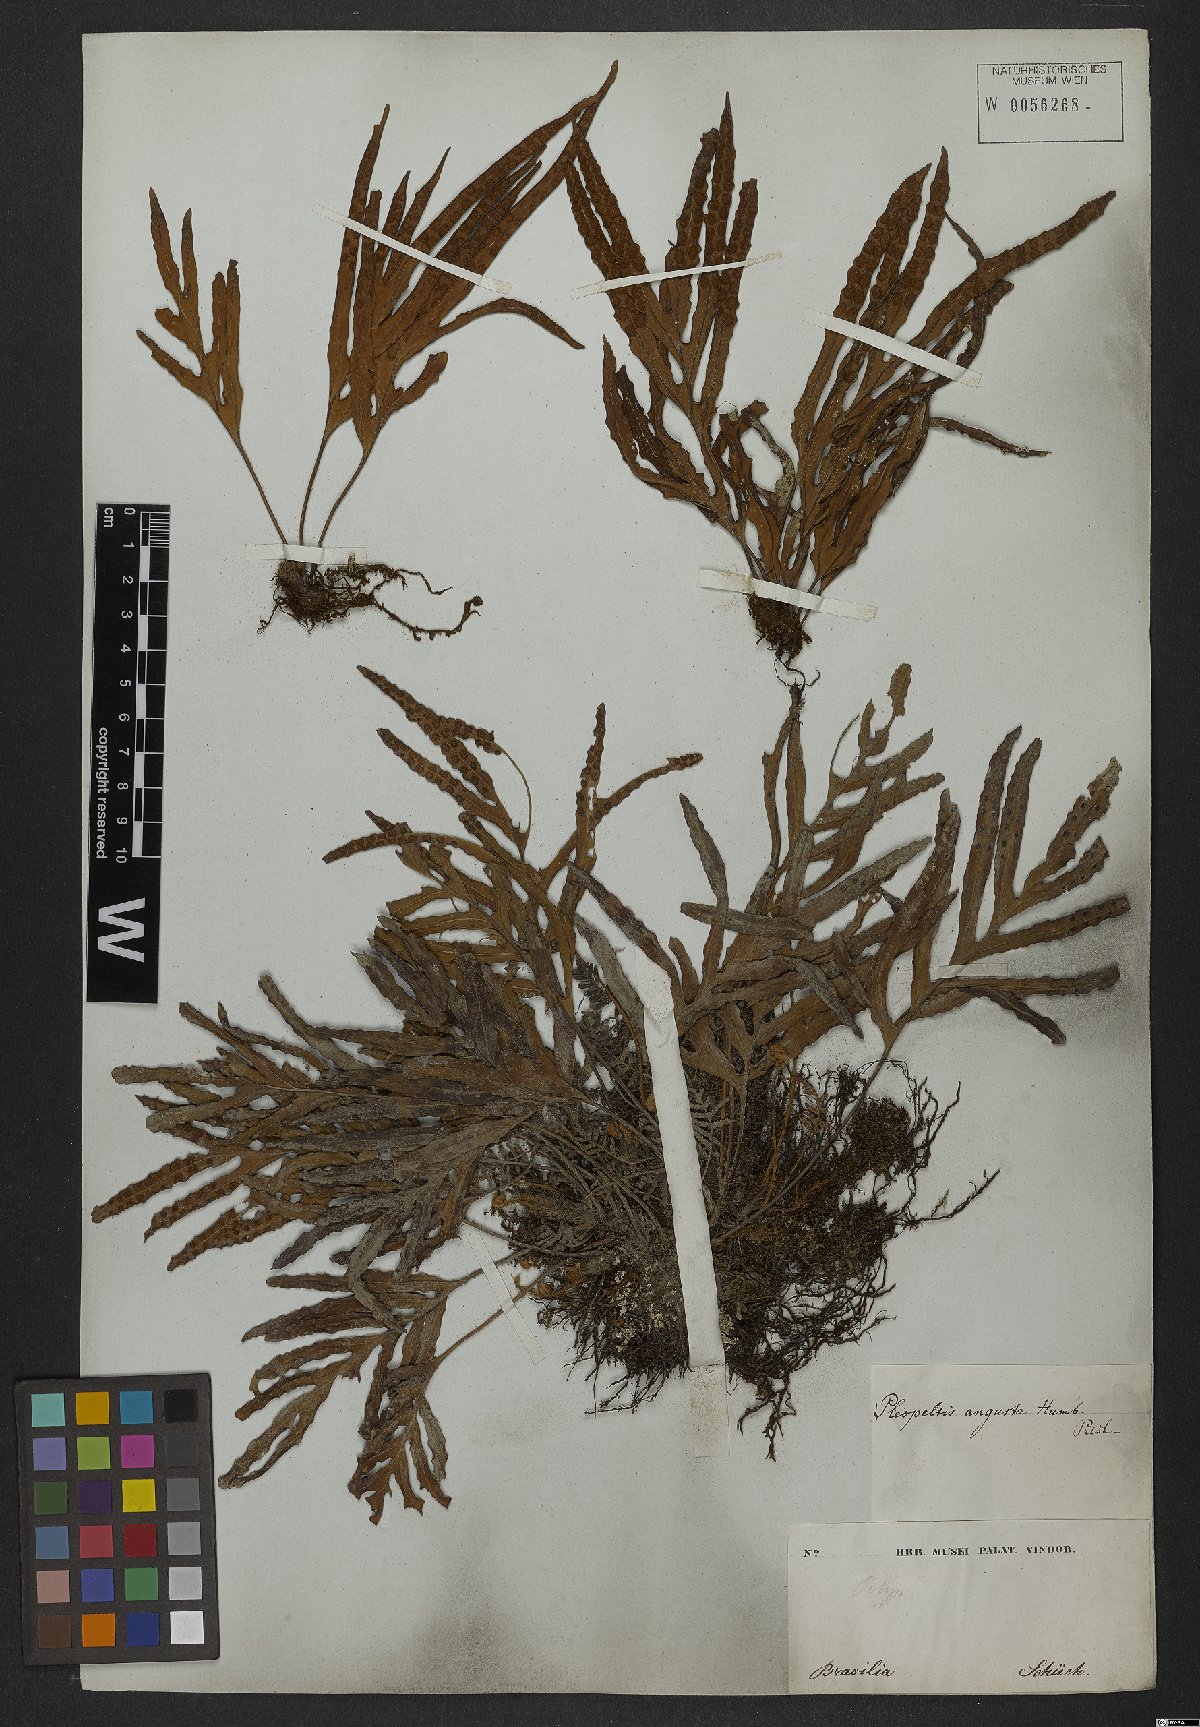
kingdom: Plantae
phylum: Tracheophyta
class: Polypodiopsida
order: Polypodiales
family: Polypodiaceae
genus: Pleopeltis
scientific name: Pleopeltis angusta
